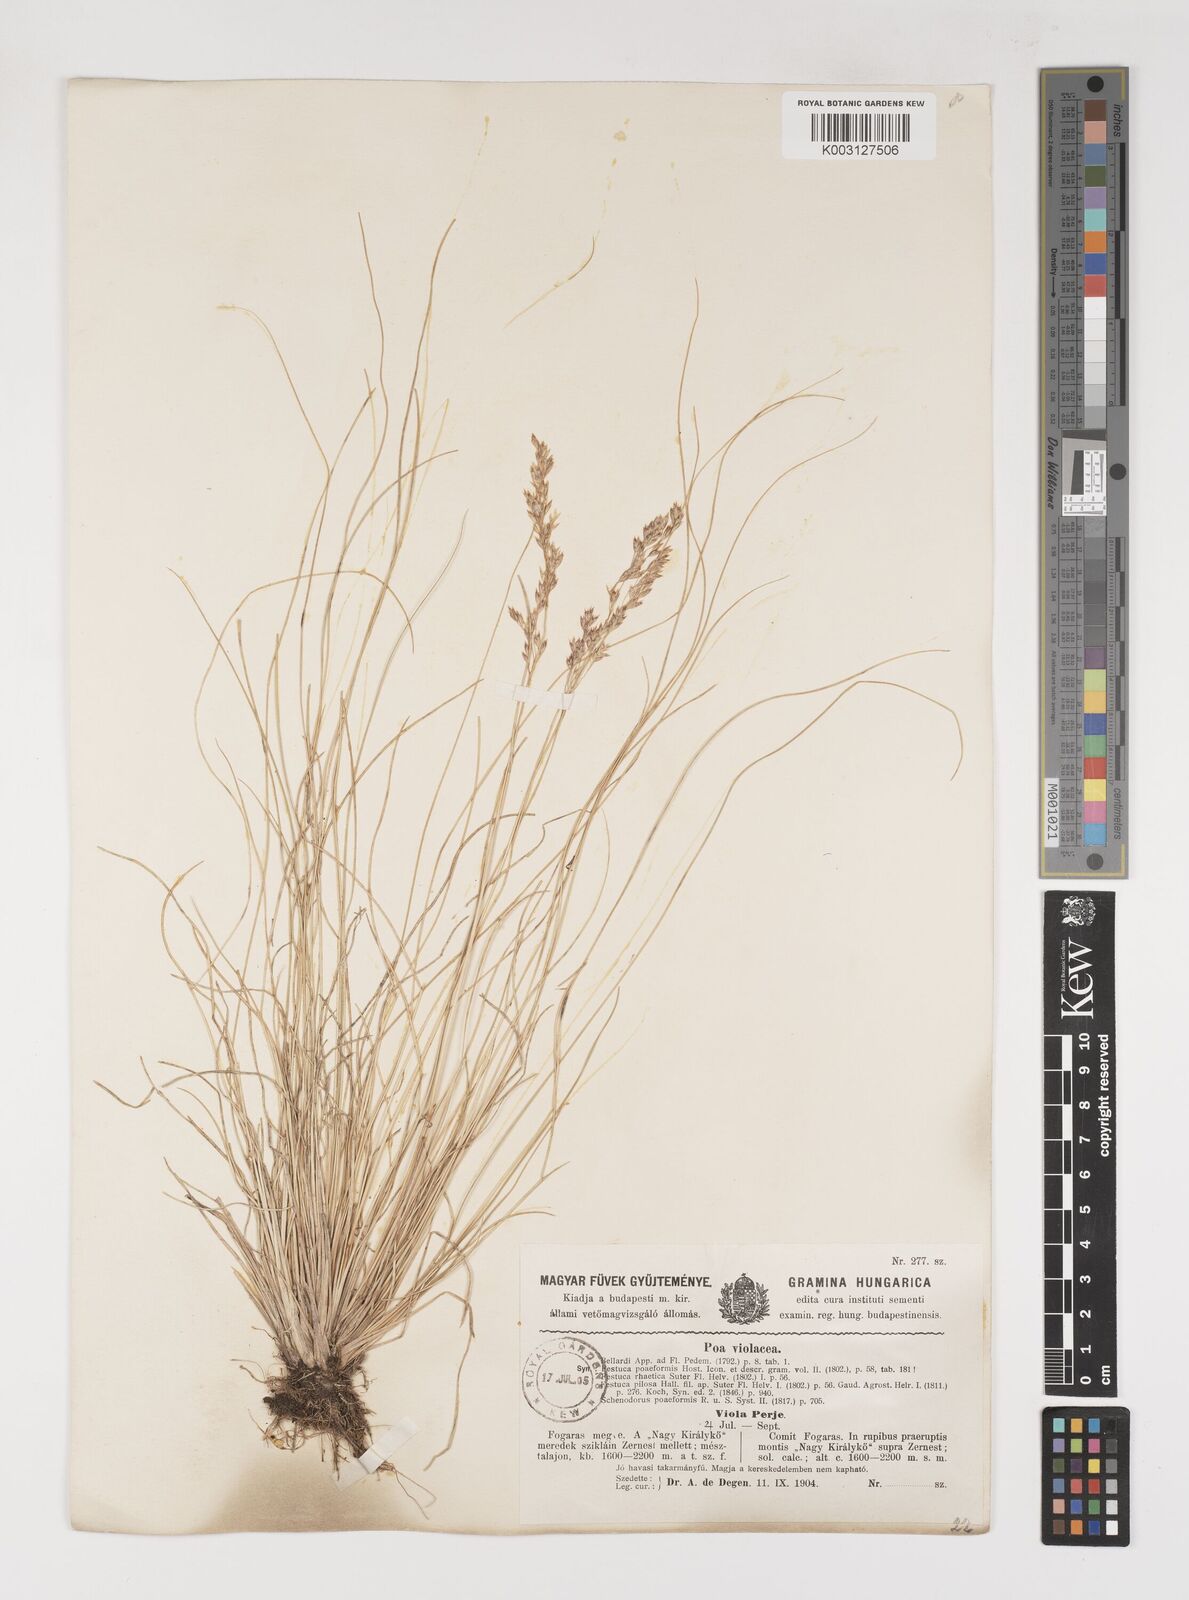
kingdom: Plantae
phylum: Tracheophyta
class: Liliopsida
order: Poales
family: Poaceae
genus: Bellardiochloa
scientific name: Bellardiochloa variegata
